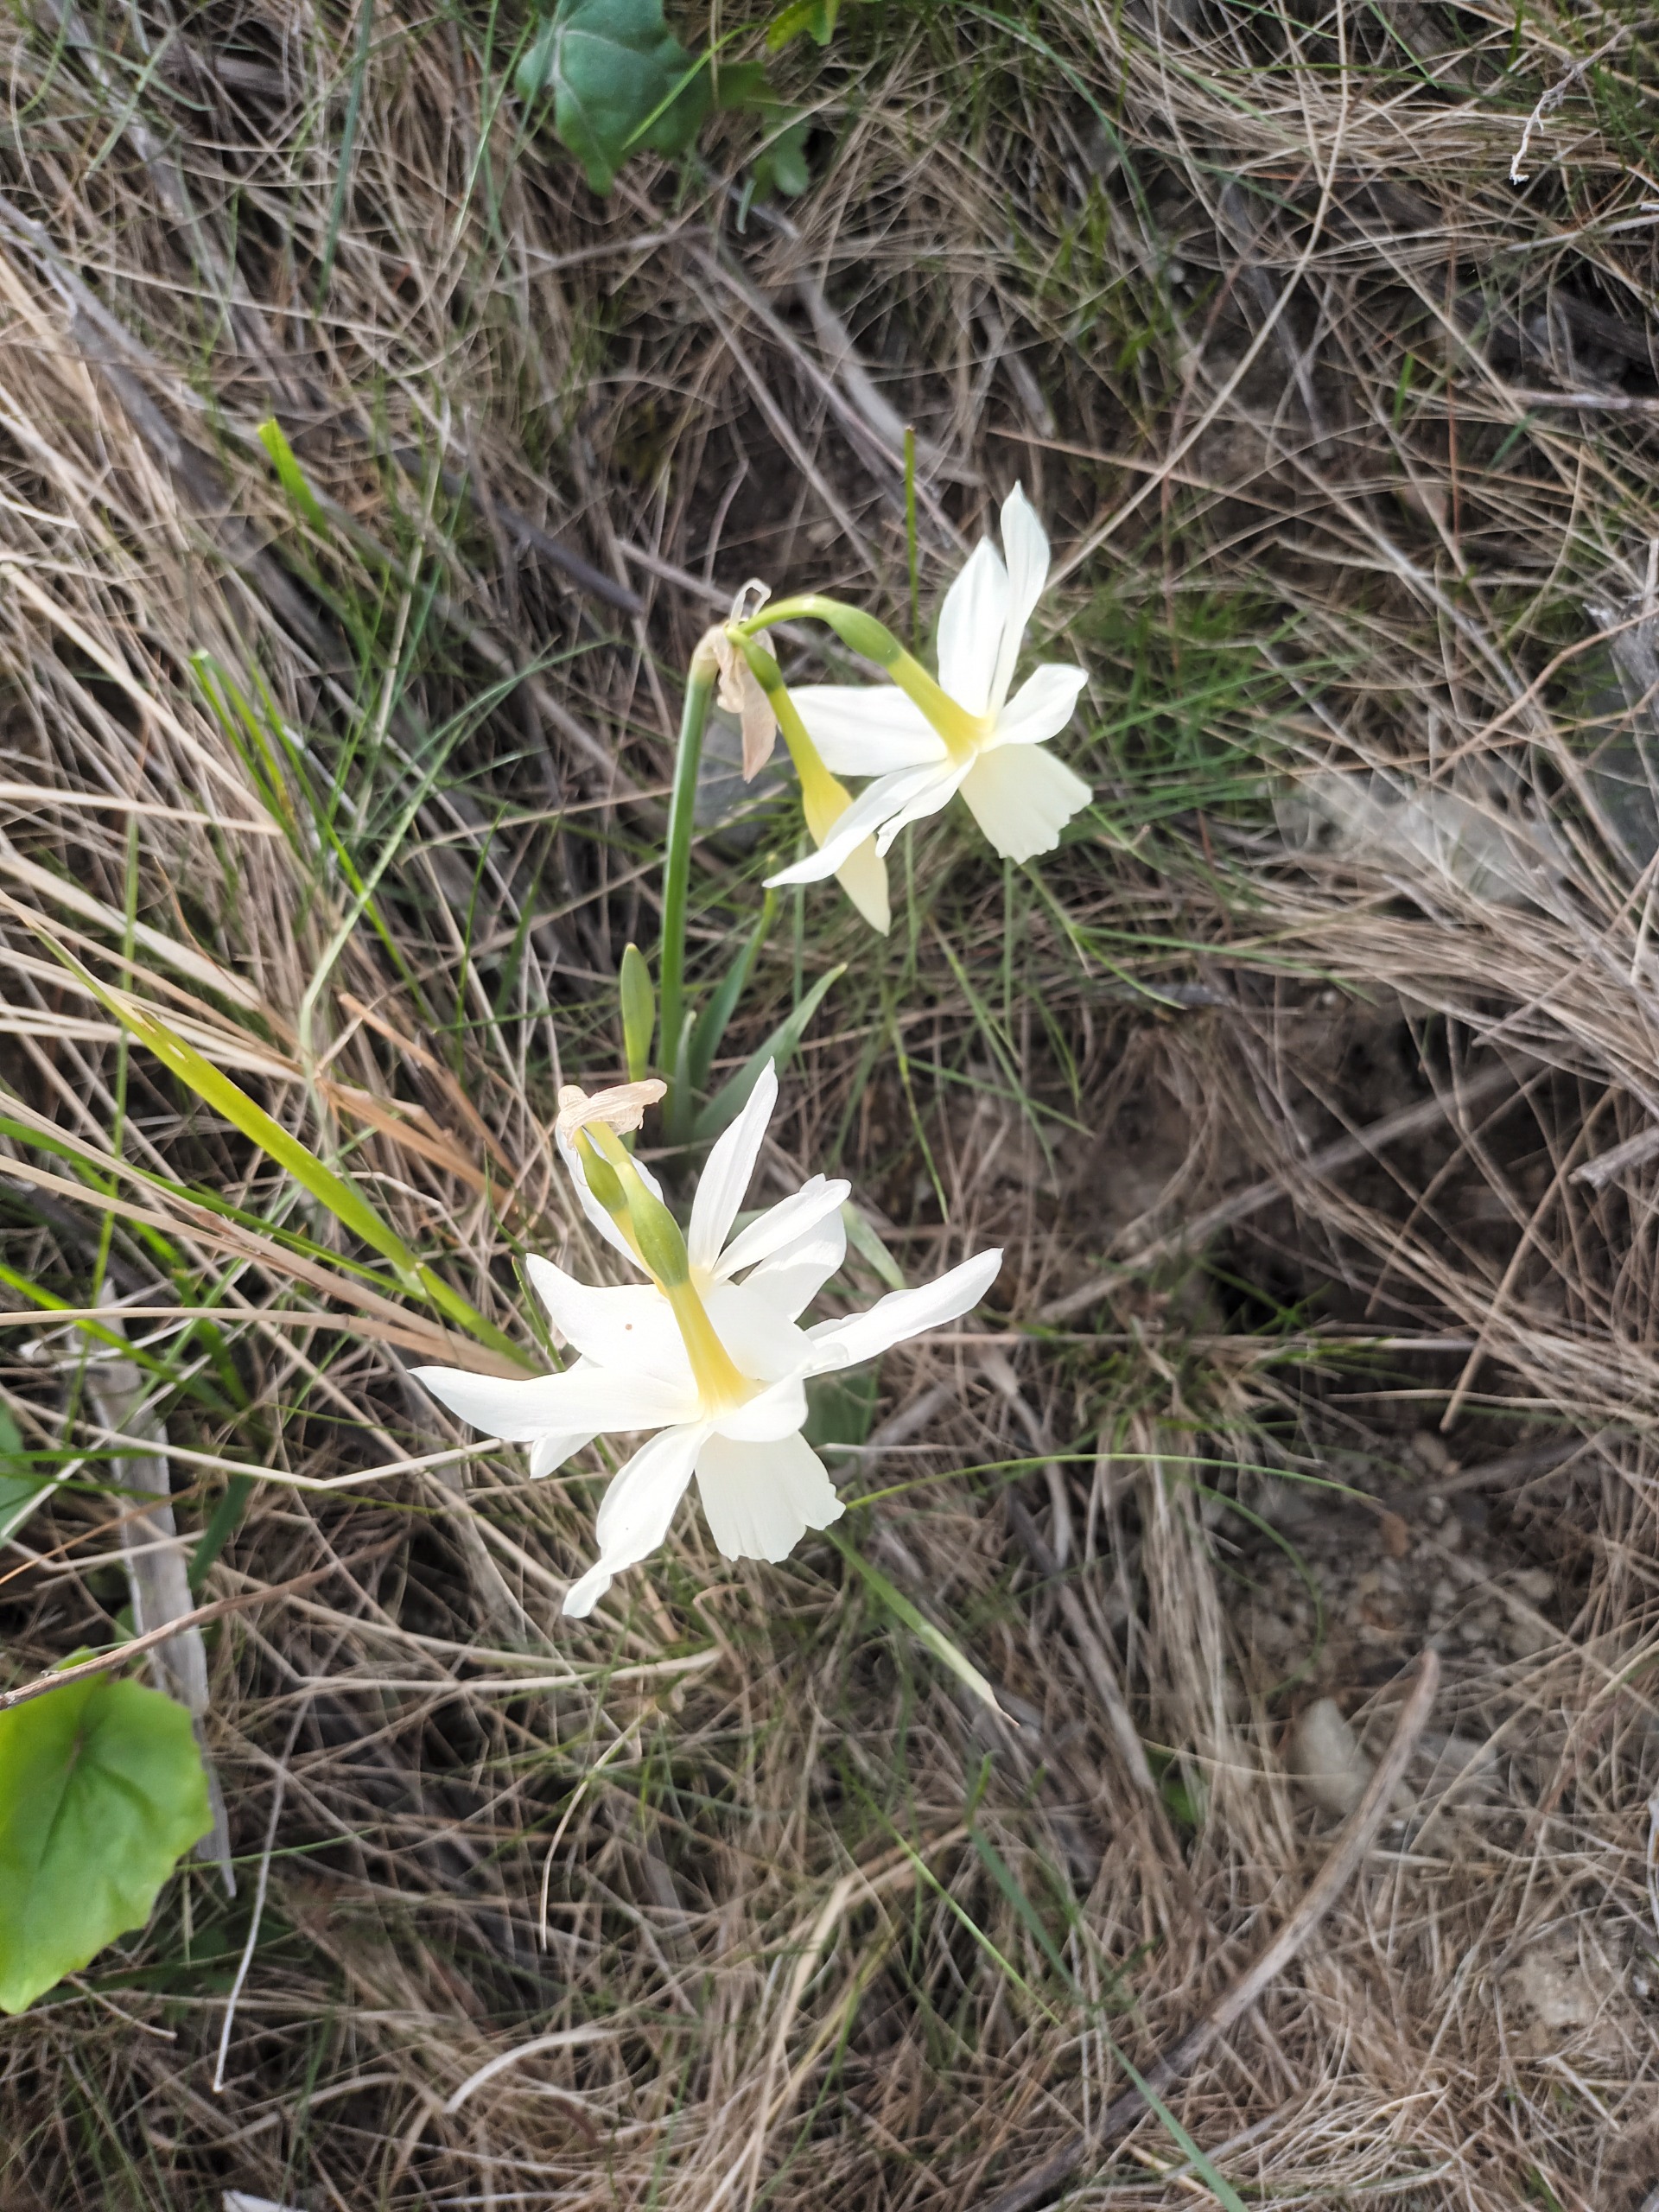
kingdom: Plantae
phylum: Tracheophyta
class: Liliopsida
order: Asparagales
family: Amaryllidaceae
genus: Narcissus
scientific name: Narcissus triandrus
